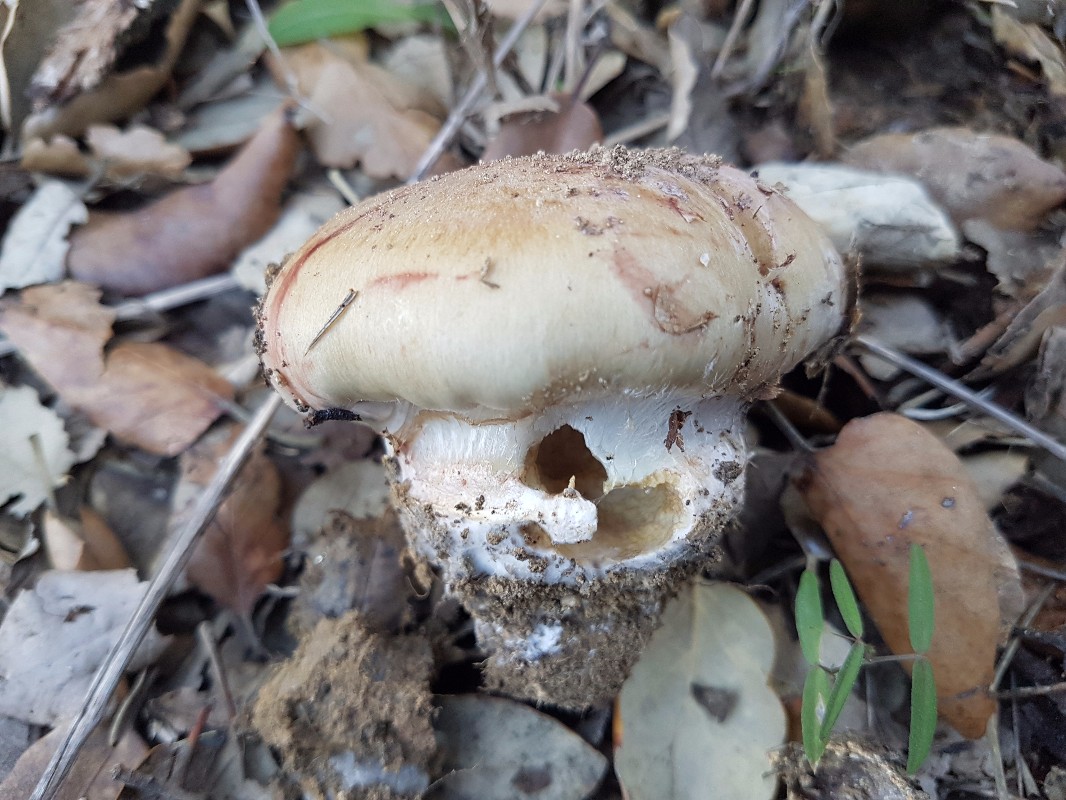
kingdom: Fungi
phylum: Basidiomycota
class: Agaricomycetes
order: Agaricales
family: Cortinariaceae
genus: Phlegmacium
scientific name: Phlegmacium misermontii
